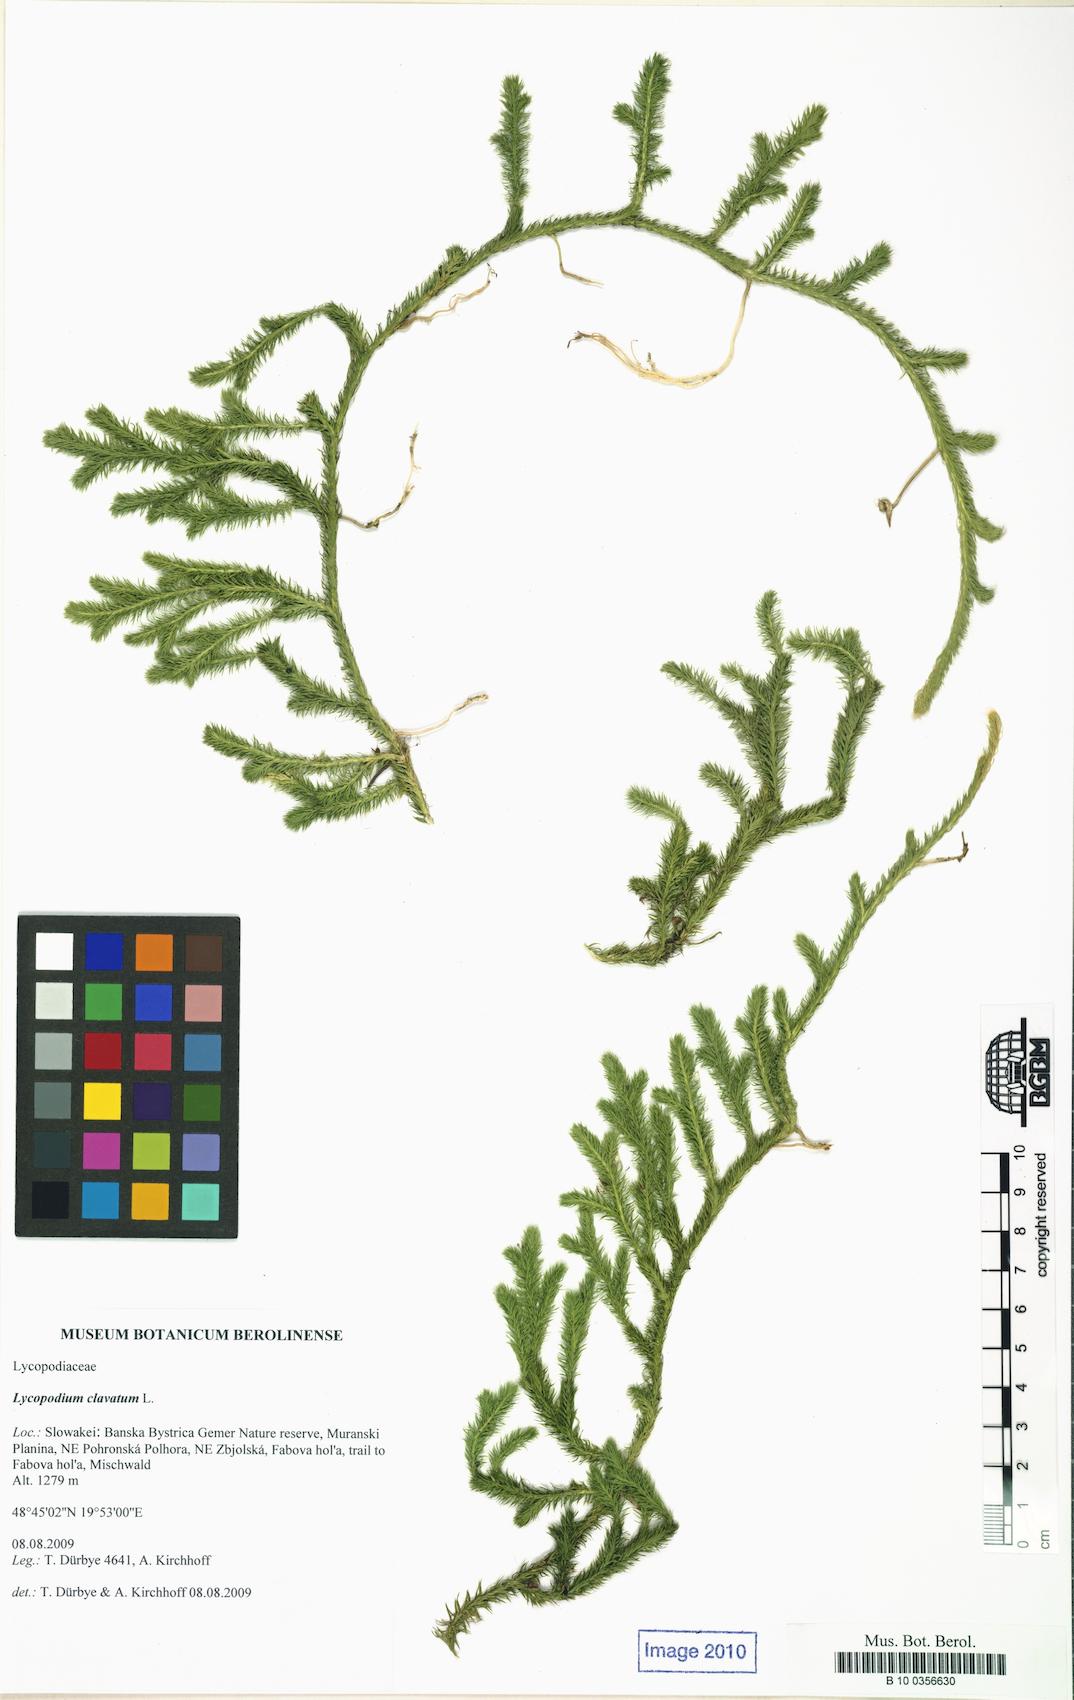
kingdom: Plantae
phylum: Tracheophyta
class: Lycopodiopsida
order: Lycopodiales
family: Lycopodiaceae
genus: Lycopodium
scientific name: Lycopodium clavatum
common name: Stag's-horn clubmoss
